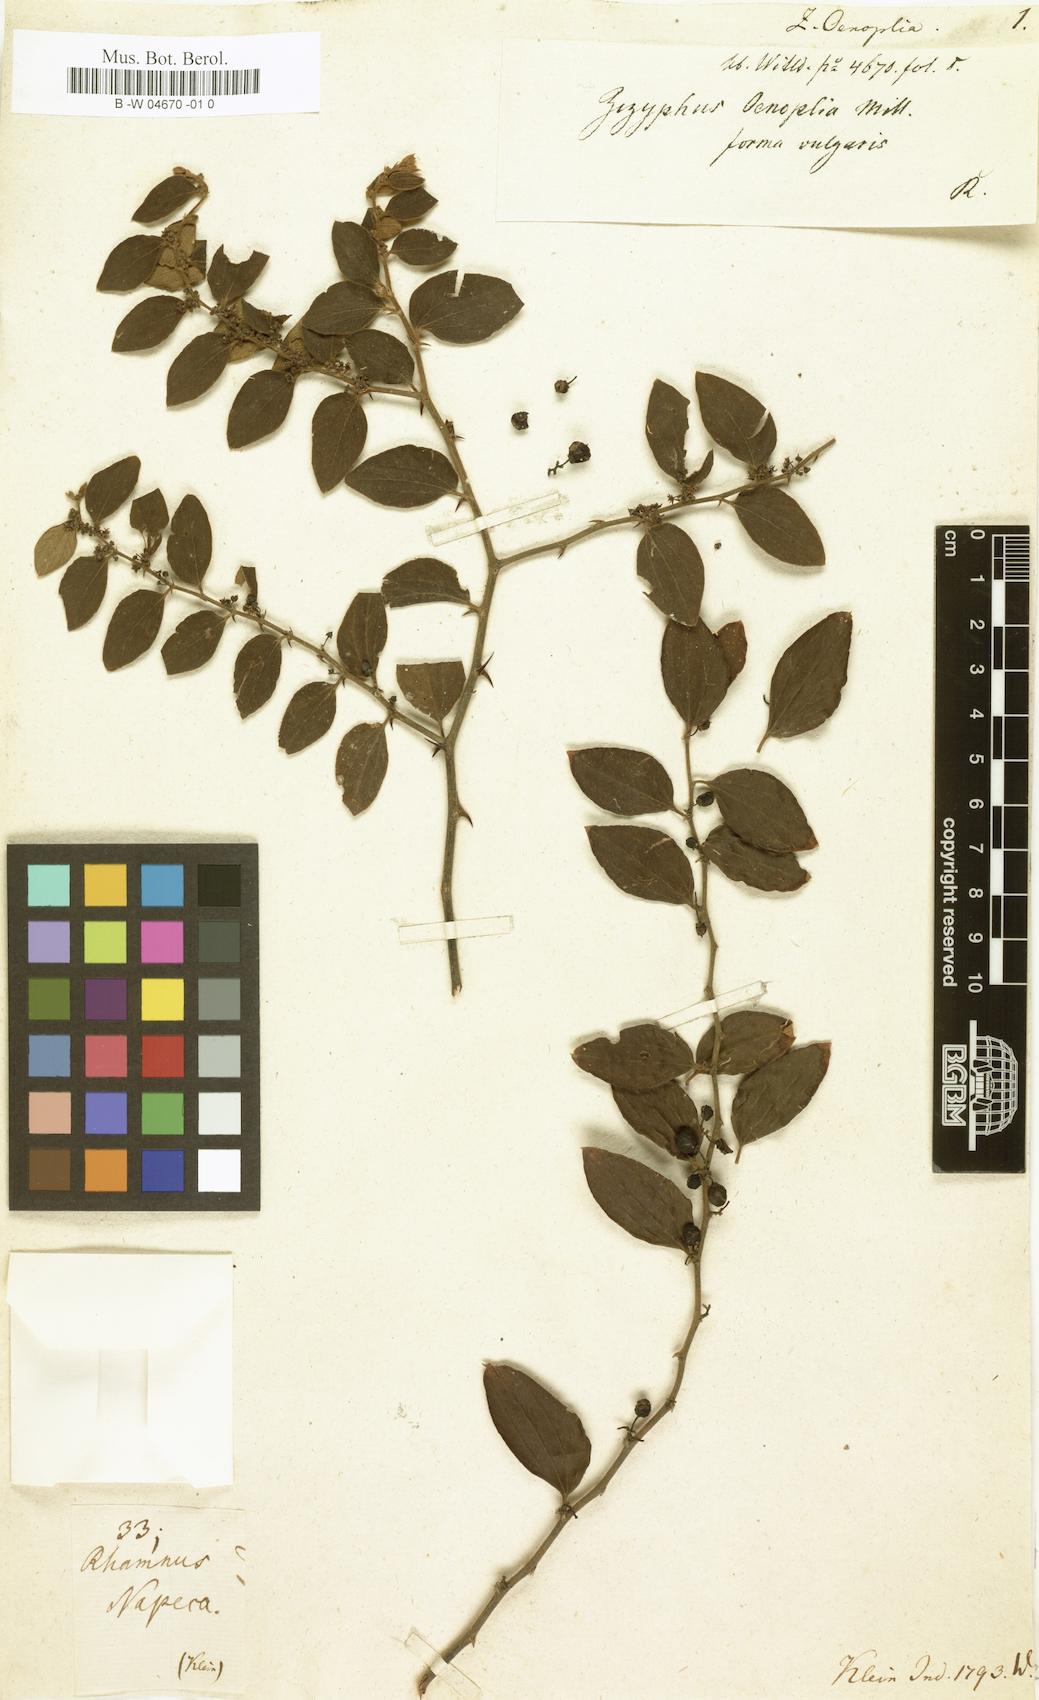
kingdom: Plantae
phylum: Tracheophyta
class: Magnoliopsida
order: Rosales
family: Rhamnaceae
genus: Ziziphus
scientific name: Ziziphus oenoplia
